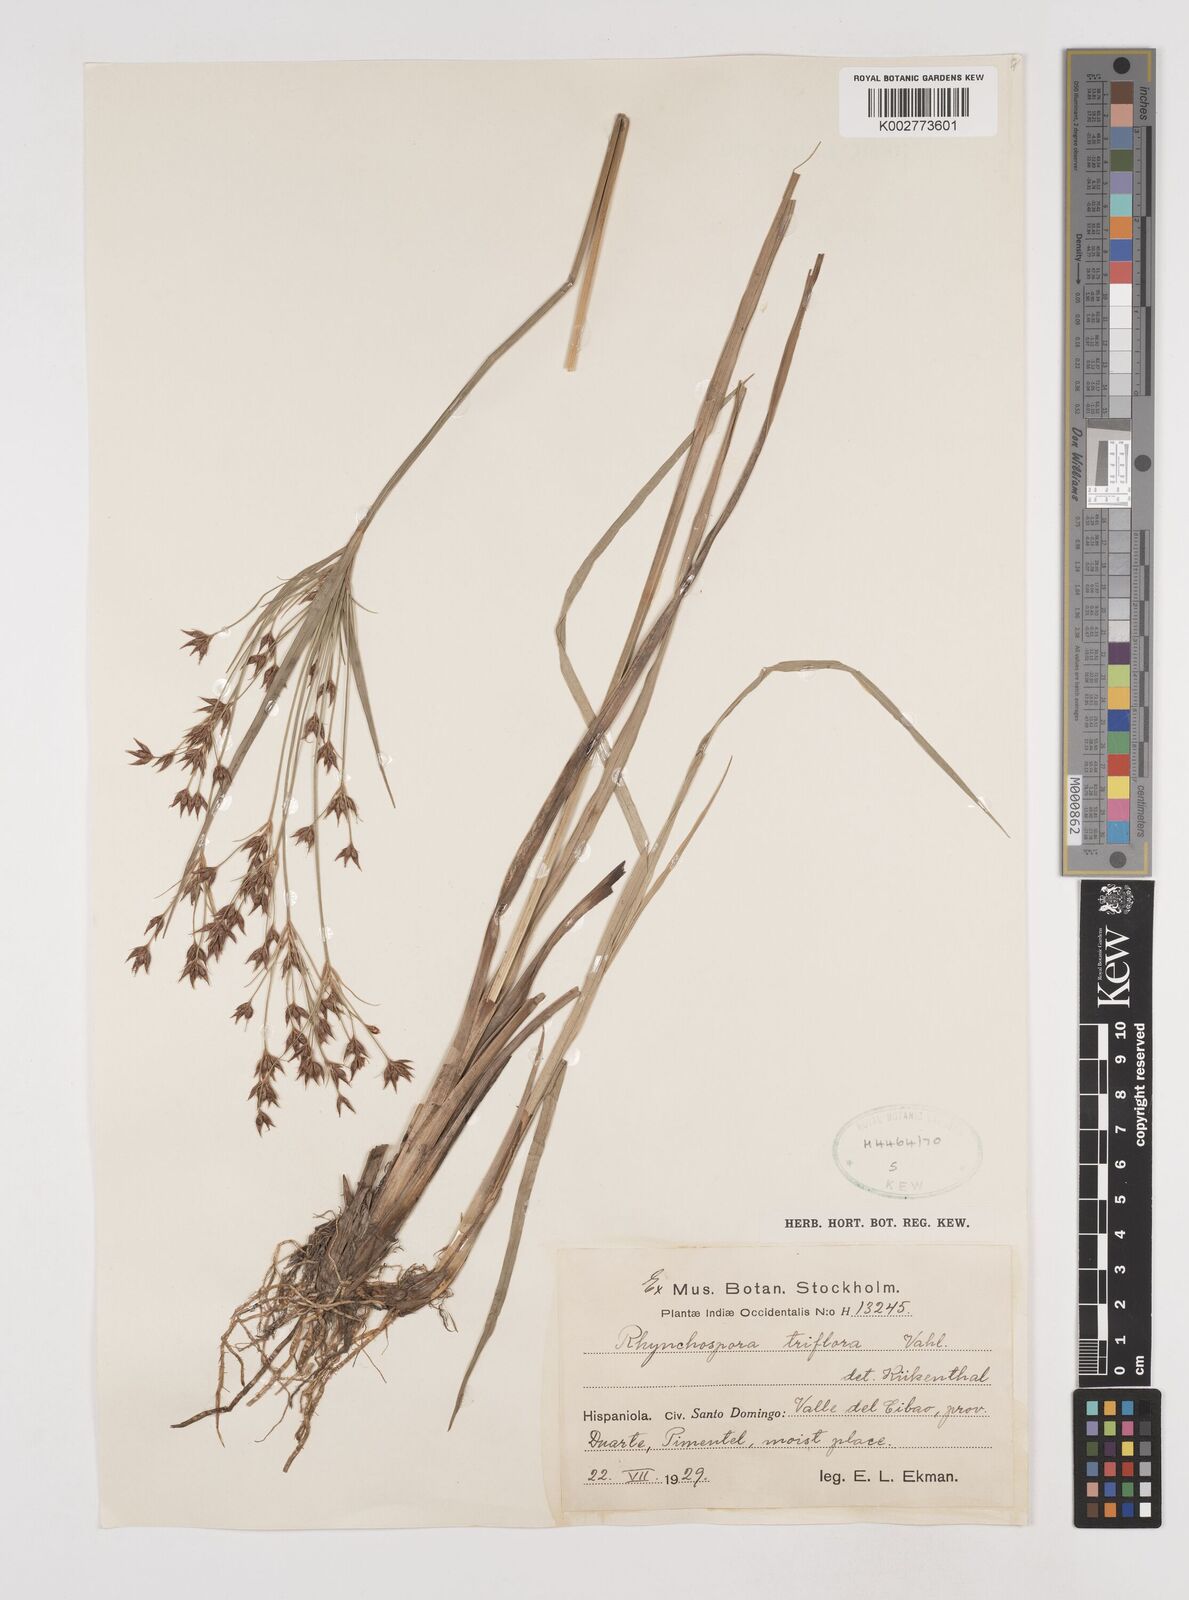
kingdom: Plantae
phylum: Tracheophyta
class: Liliopsida
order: Poales
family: Cyperaceae
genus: Rhynchospora
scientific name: Rhynchospora triflora
